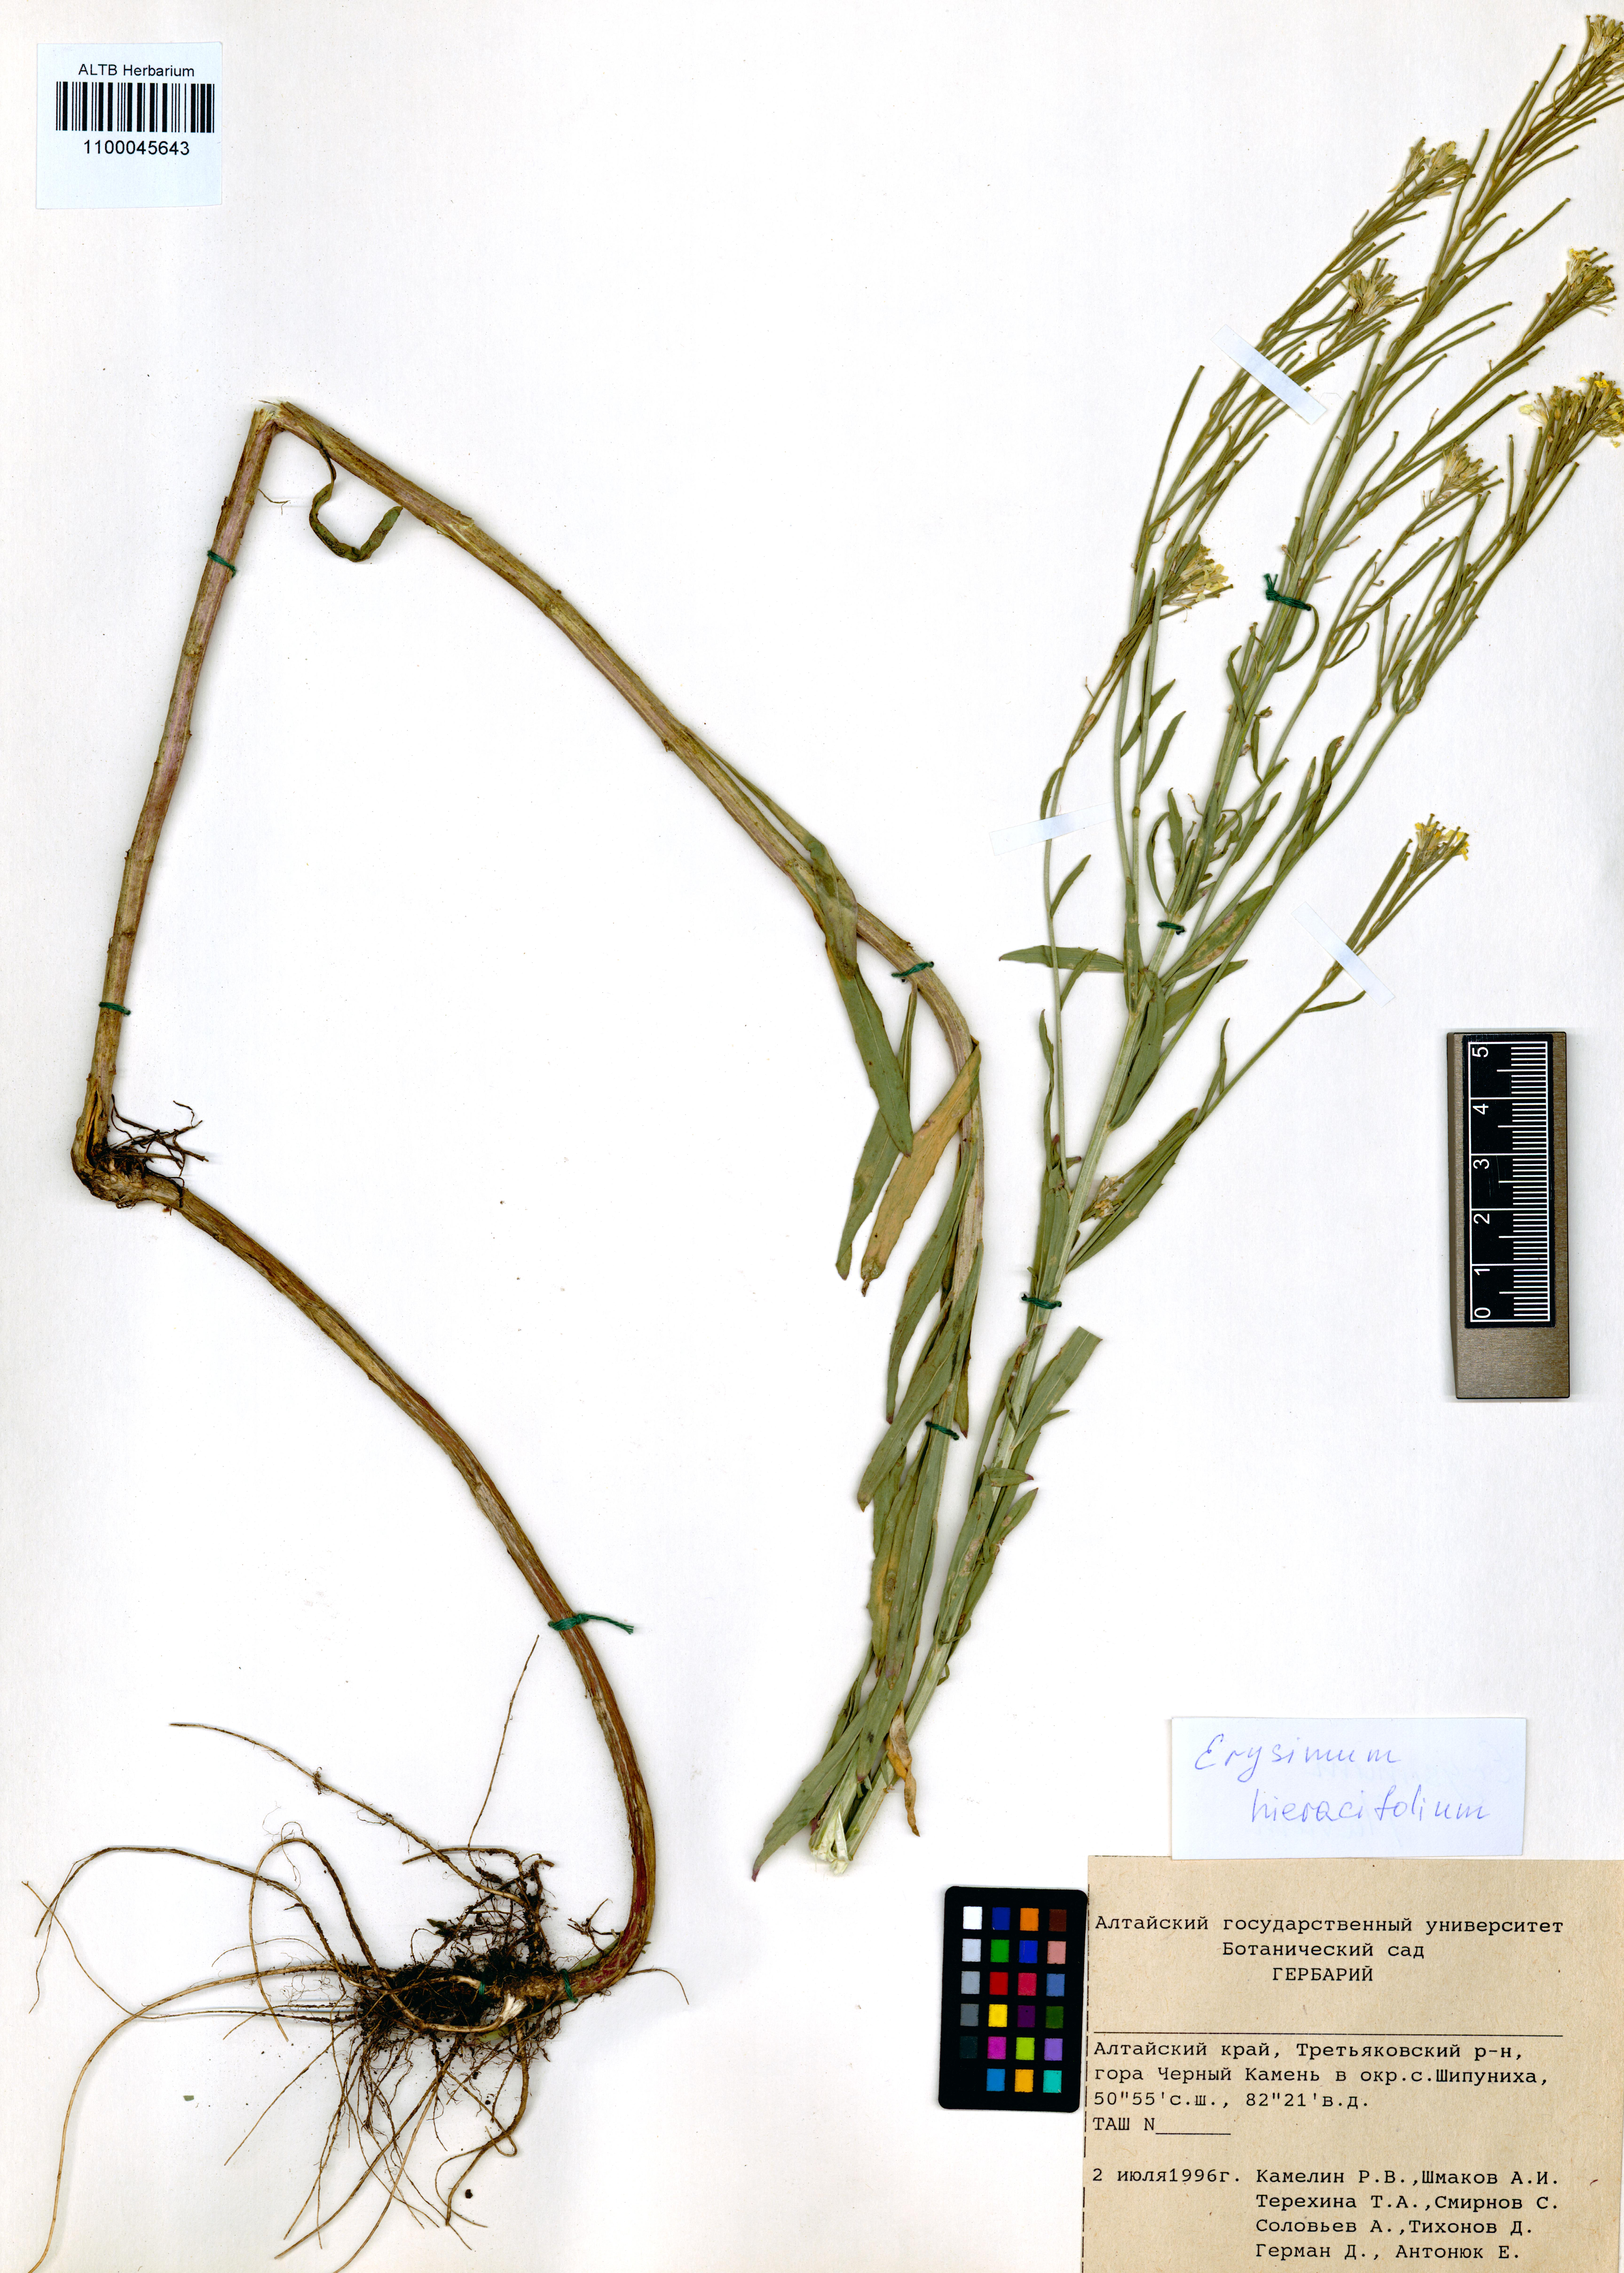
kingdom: Plantae
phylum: Tracheophyta
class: Magnoliopsida
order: Brassicales
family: Brassicaceae
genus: Erysimum
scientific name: Erysimum hieraciifolium
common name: European wallflower
